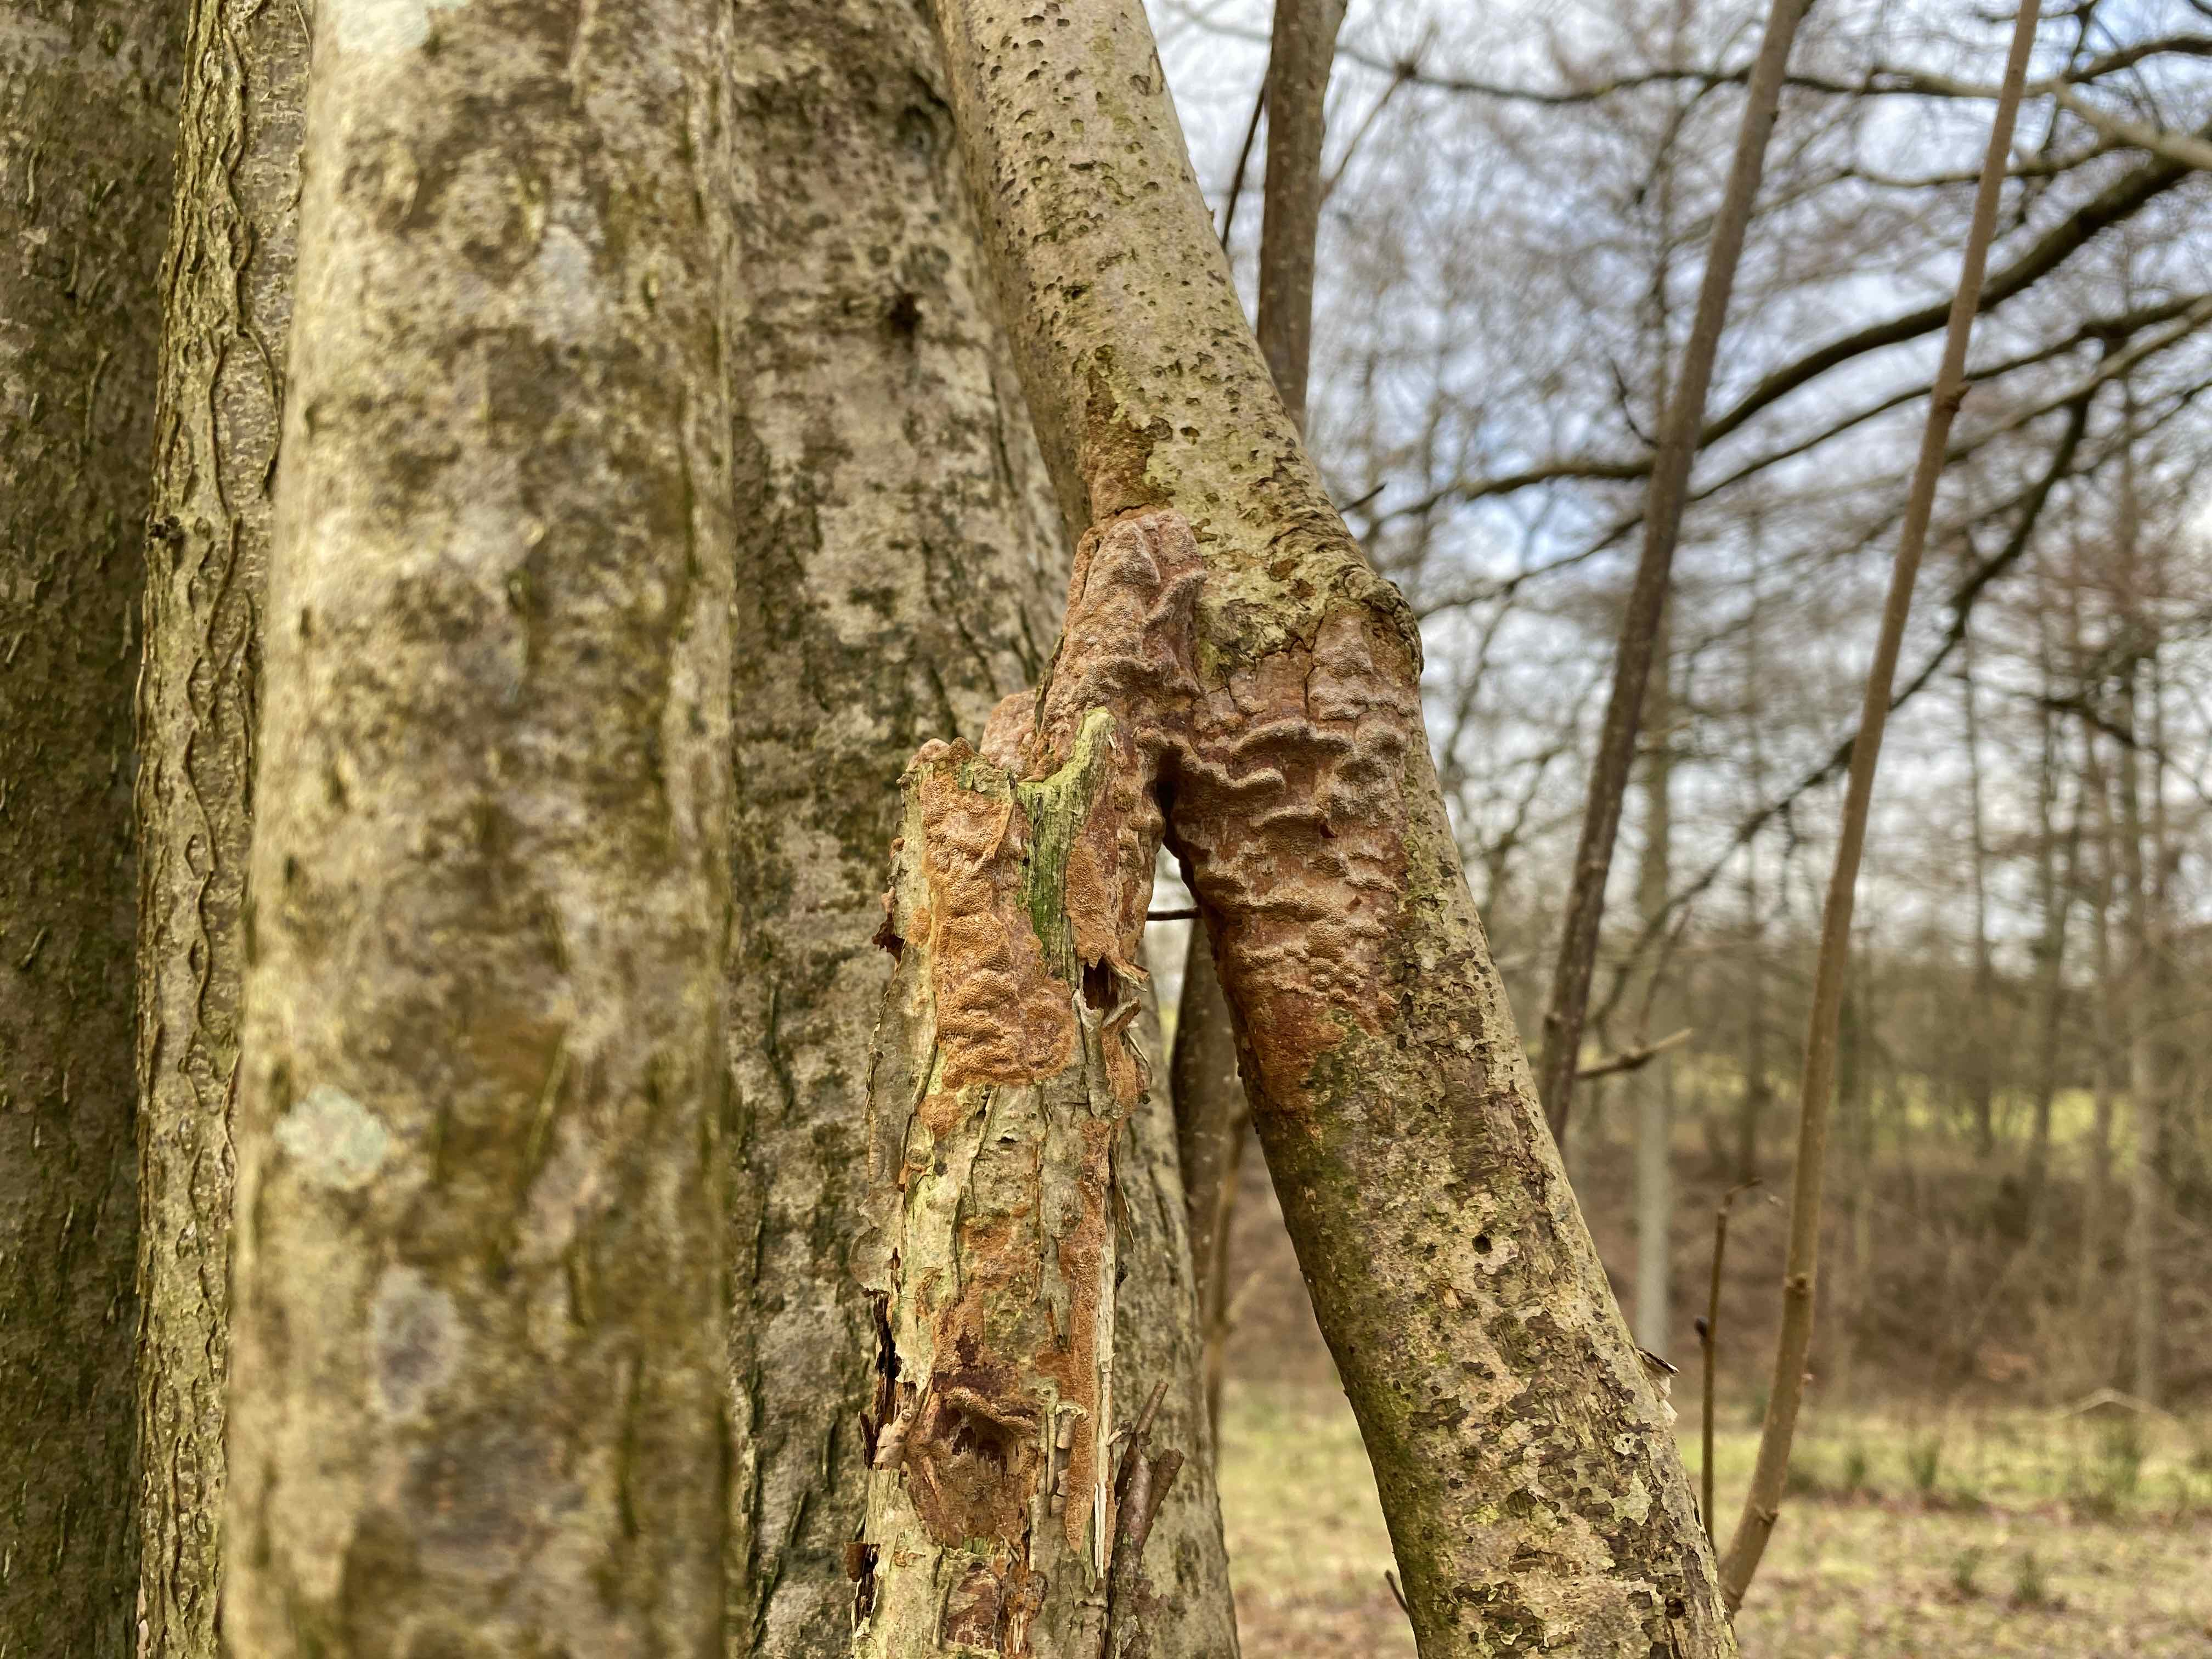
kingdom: Fungi
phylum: Basidiomycota
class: Agaricomycetes
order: Hymenochaetales
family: Hymenochaetaceae
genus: Fuscoporia
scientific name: Fuscoporia ferrea
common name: skorpe-ildporesvamp
